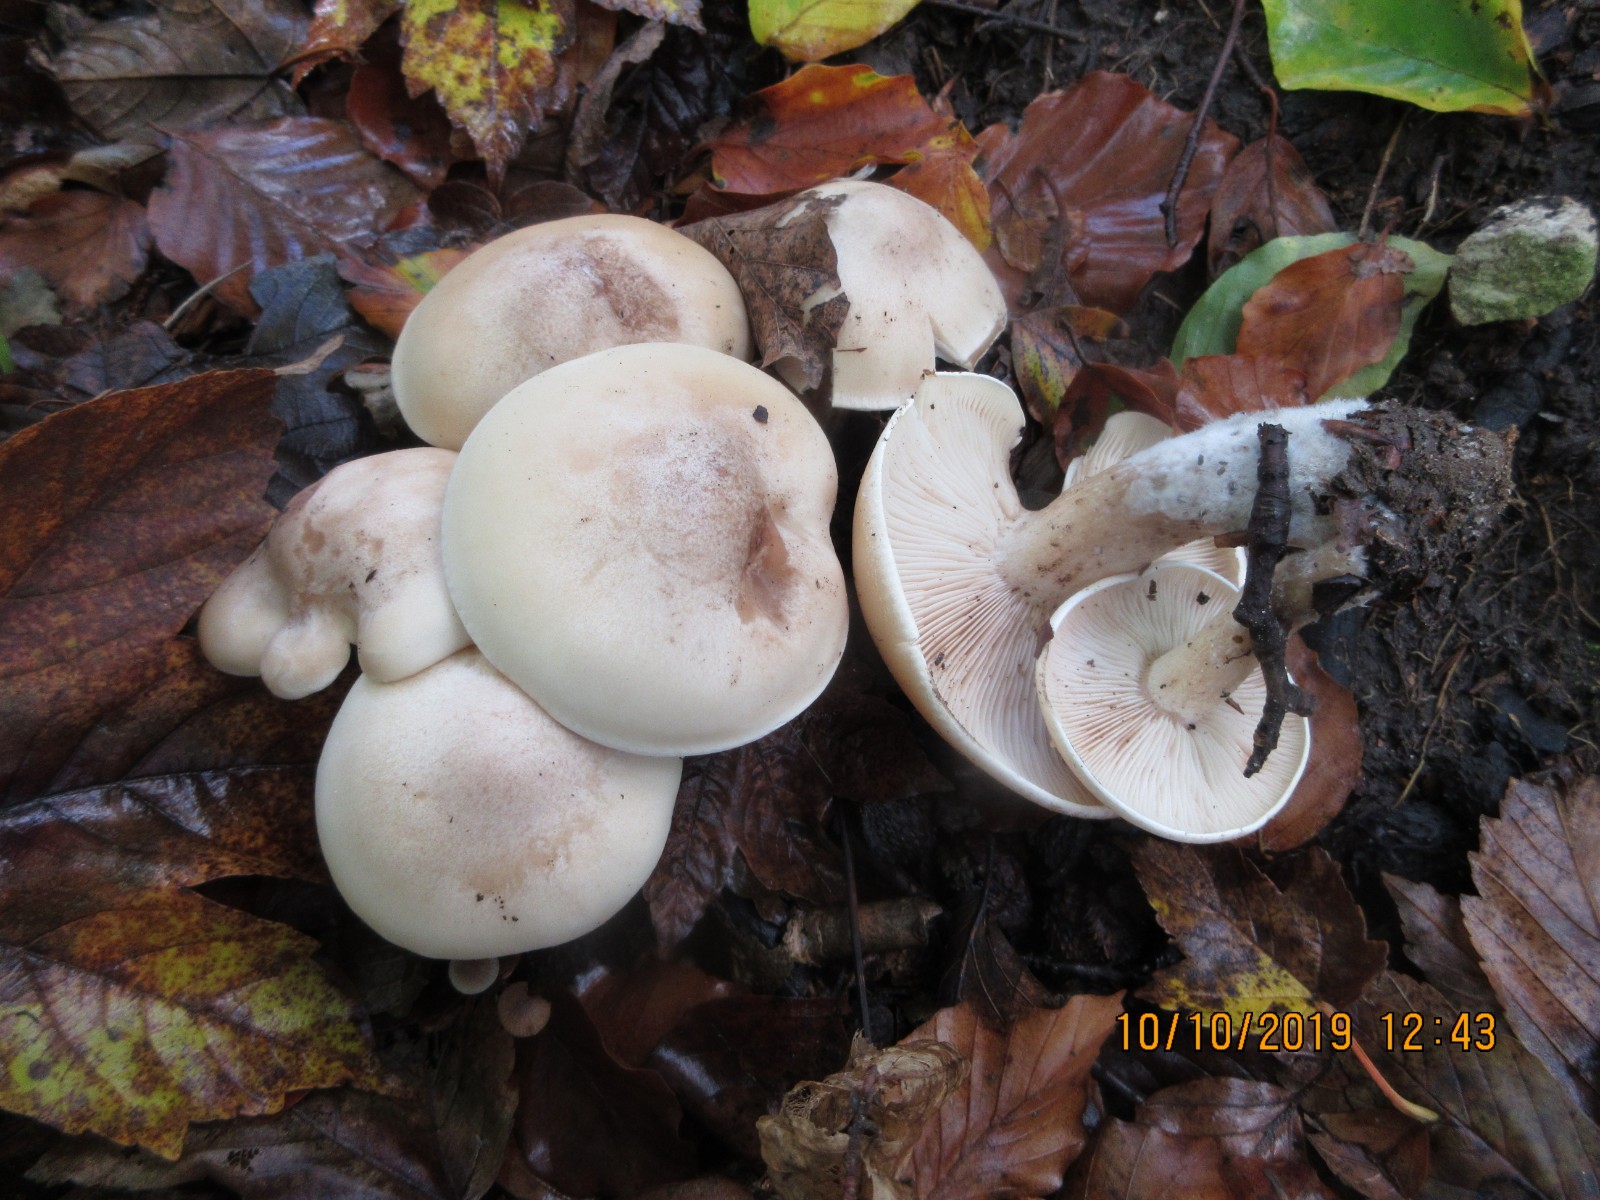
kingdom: Fungi
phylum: Basidiomycota
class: Agaricomycetes
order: Agaricales
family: Omphalotaceae
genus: Rhodocollybia
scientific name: Rhodocollybia maculata
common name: plettet fladhat
